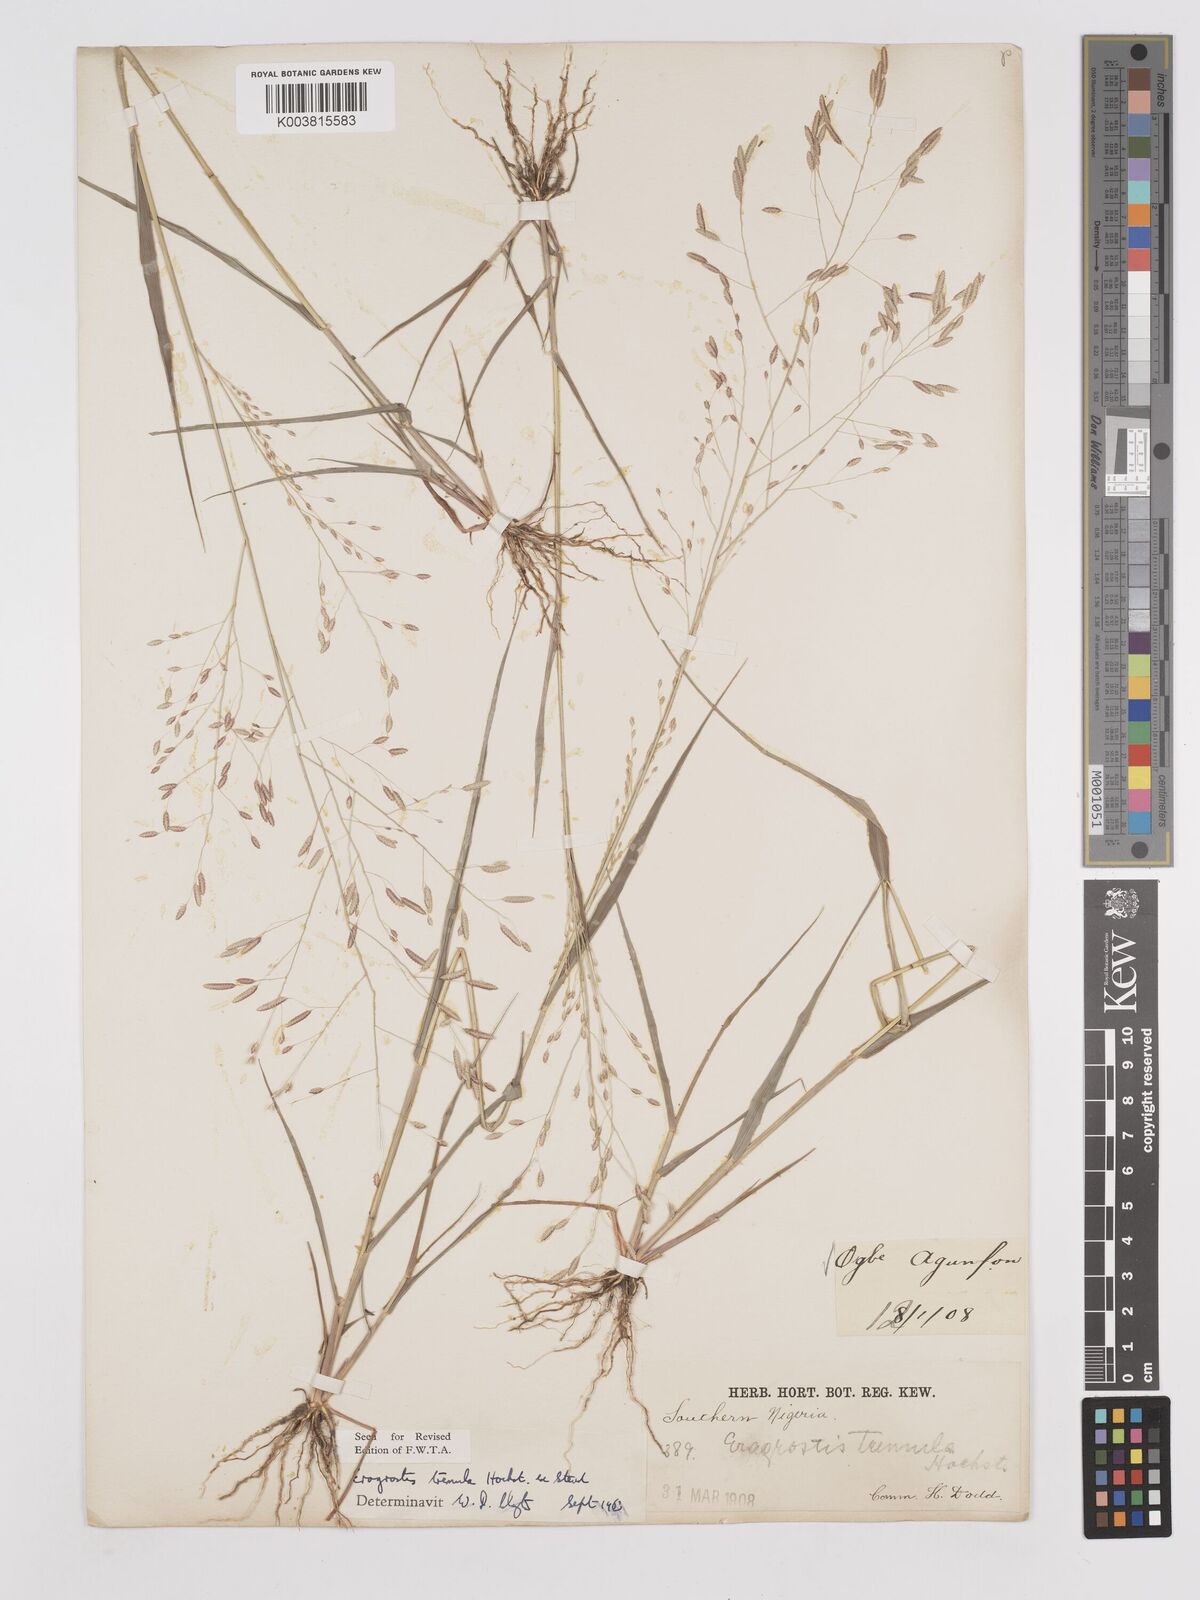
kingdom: Plantae
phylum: Tracheophyta
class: Liliopsida
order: Poales
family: Poaceae
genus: Eragrostis
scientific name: Eragrostis tremula
